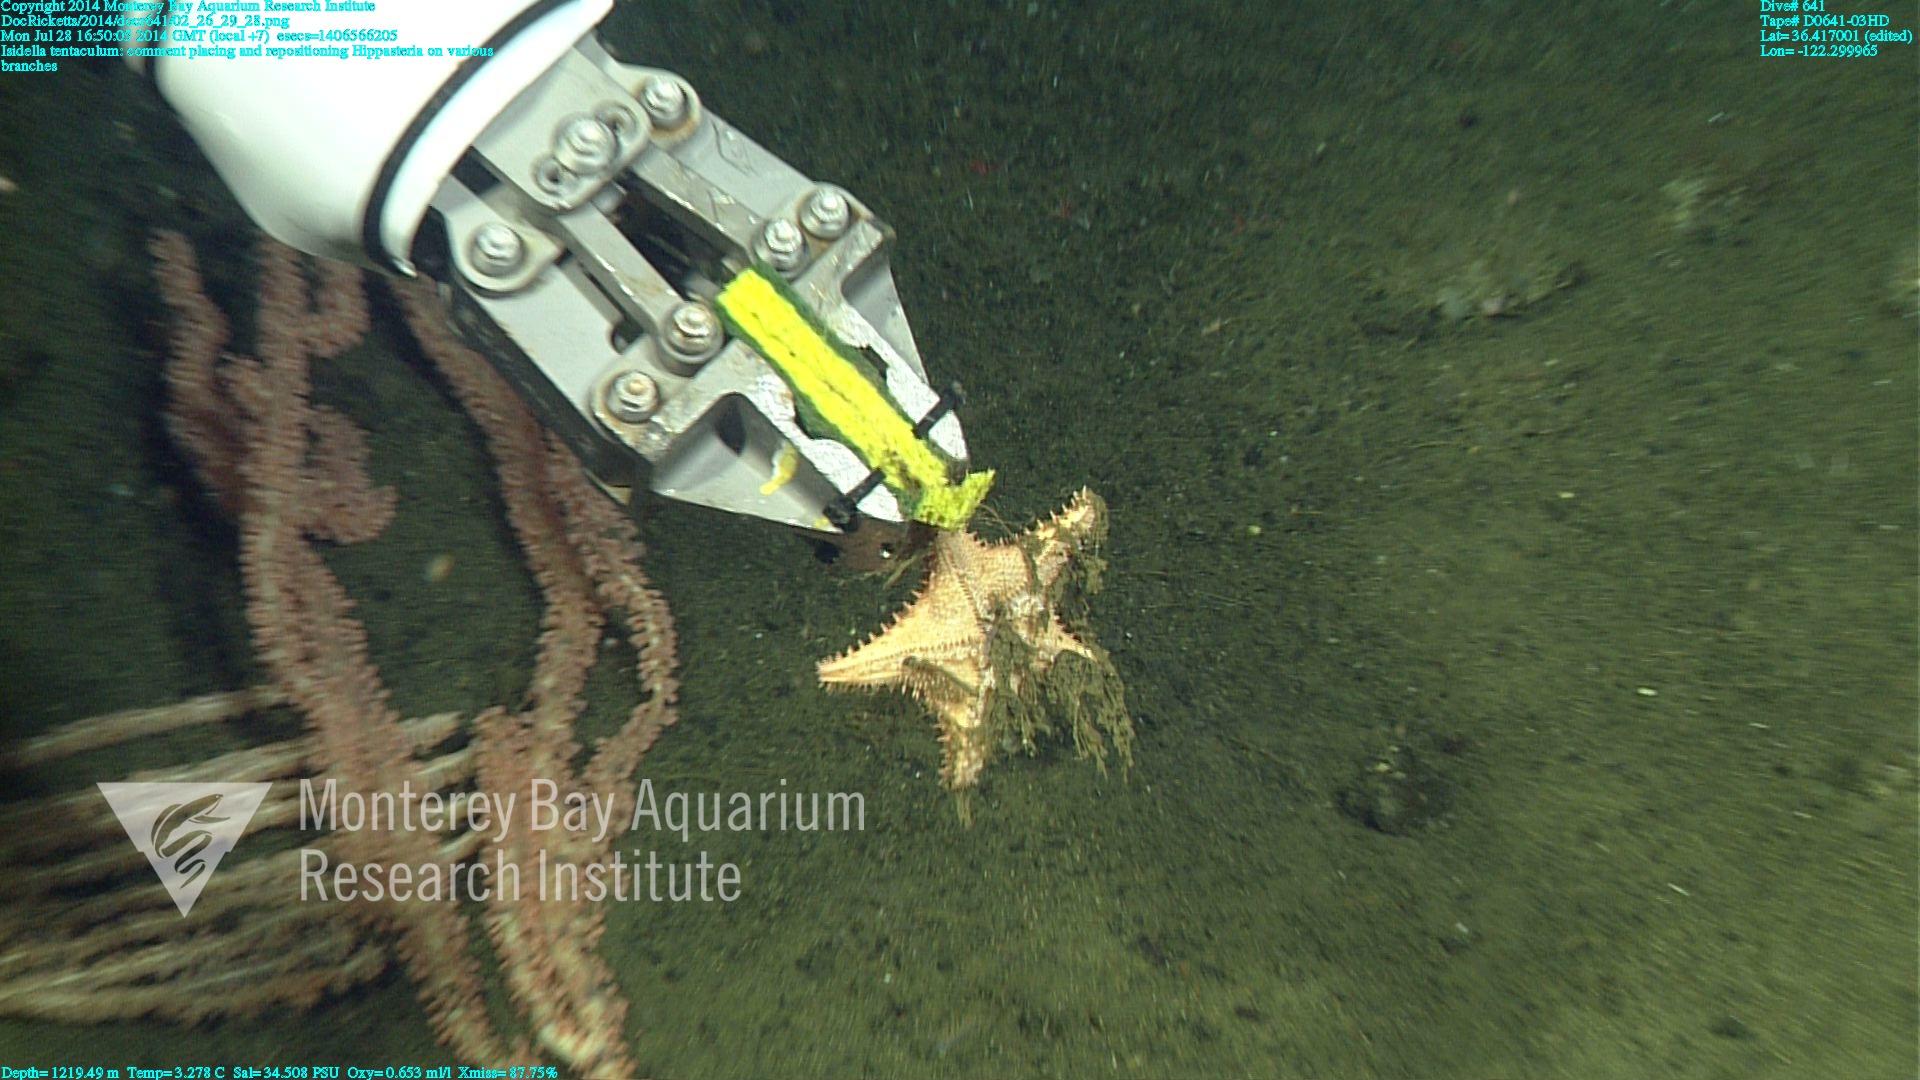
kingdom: Animalia
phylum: Cnidaria
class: Anthozoa
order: Scleralcyonacea
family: Keratoisididae
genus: Isidella
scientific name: Isidella tentaculum
